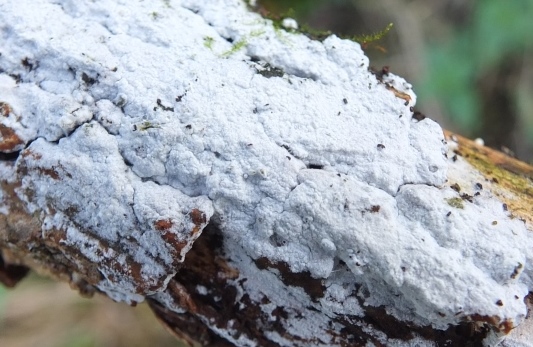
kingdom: Fungi
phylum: Basidiomycota
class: Agaricomycetes
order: Corticiales
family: Corticiaceae
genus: Lyomyces
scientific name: Lyomyces sambuci
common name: almindelig hyldehinde
